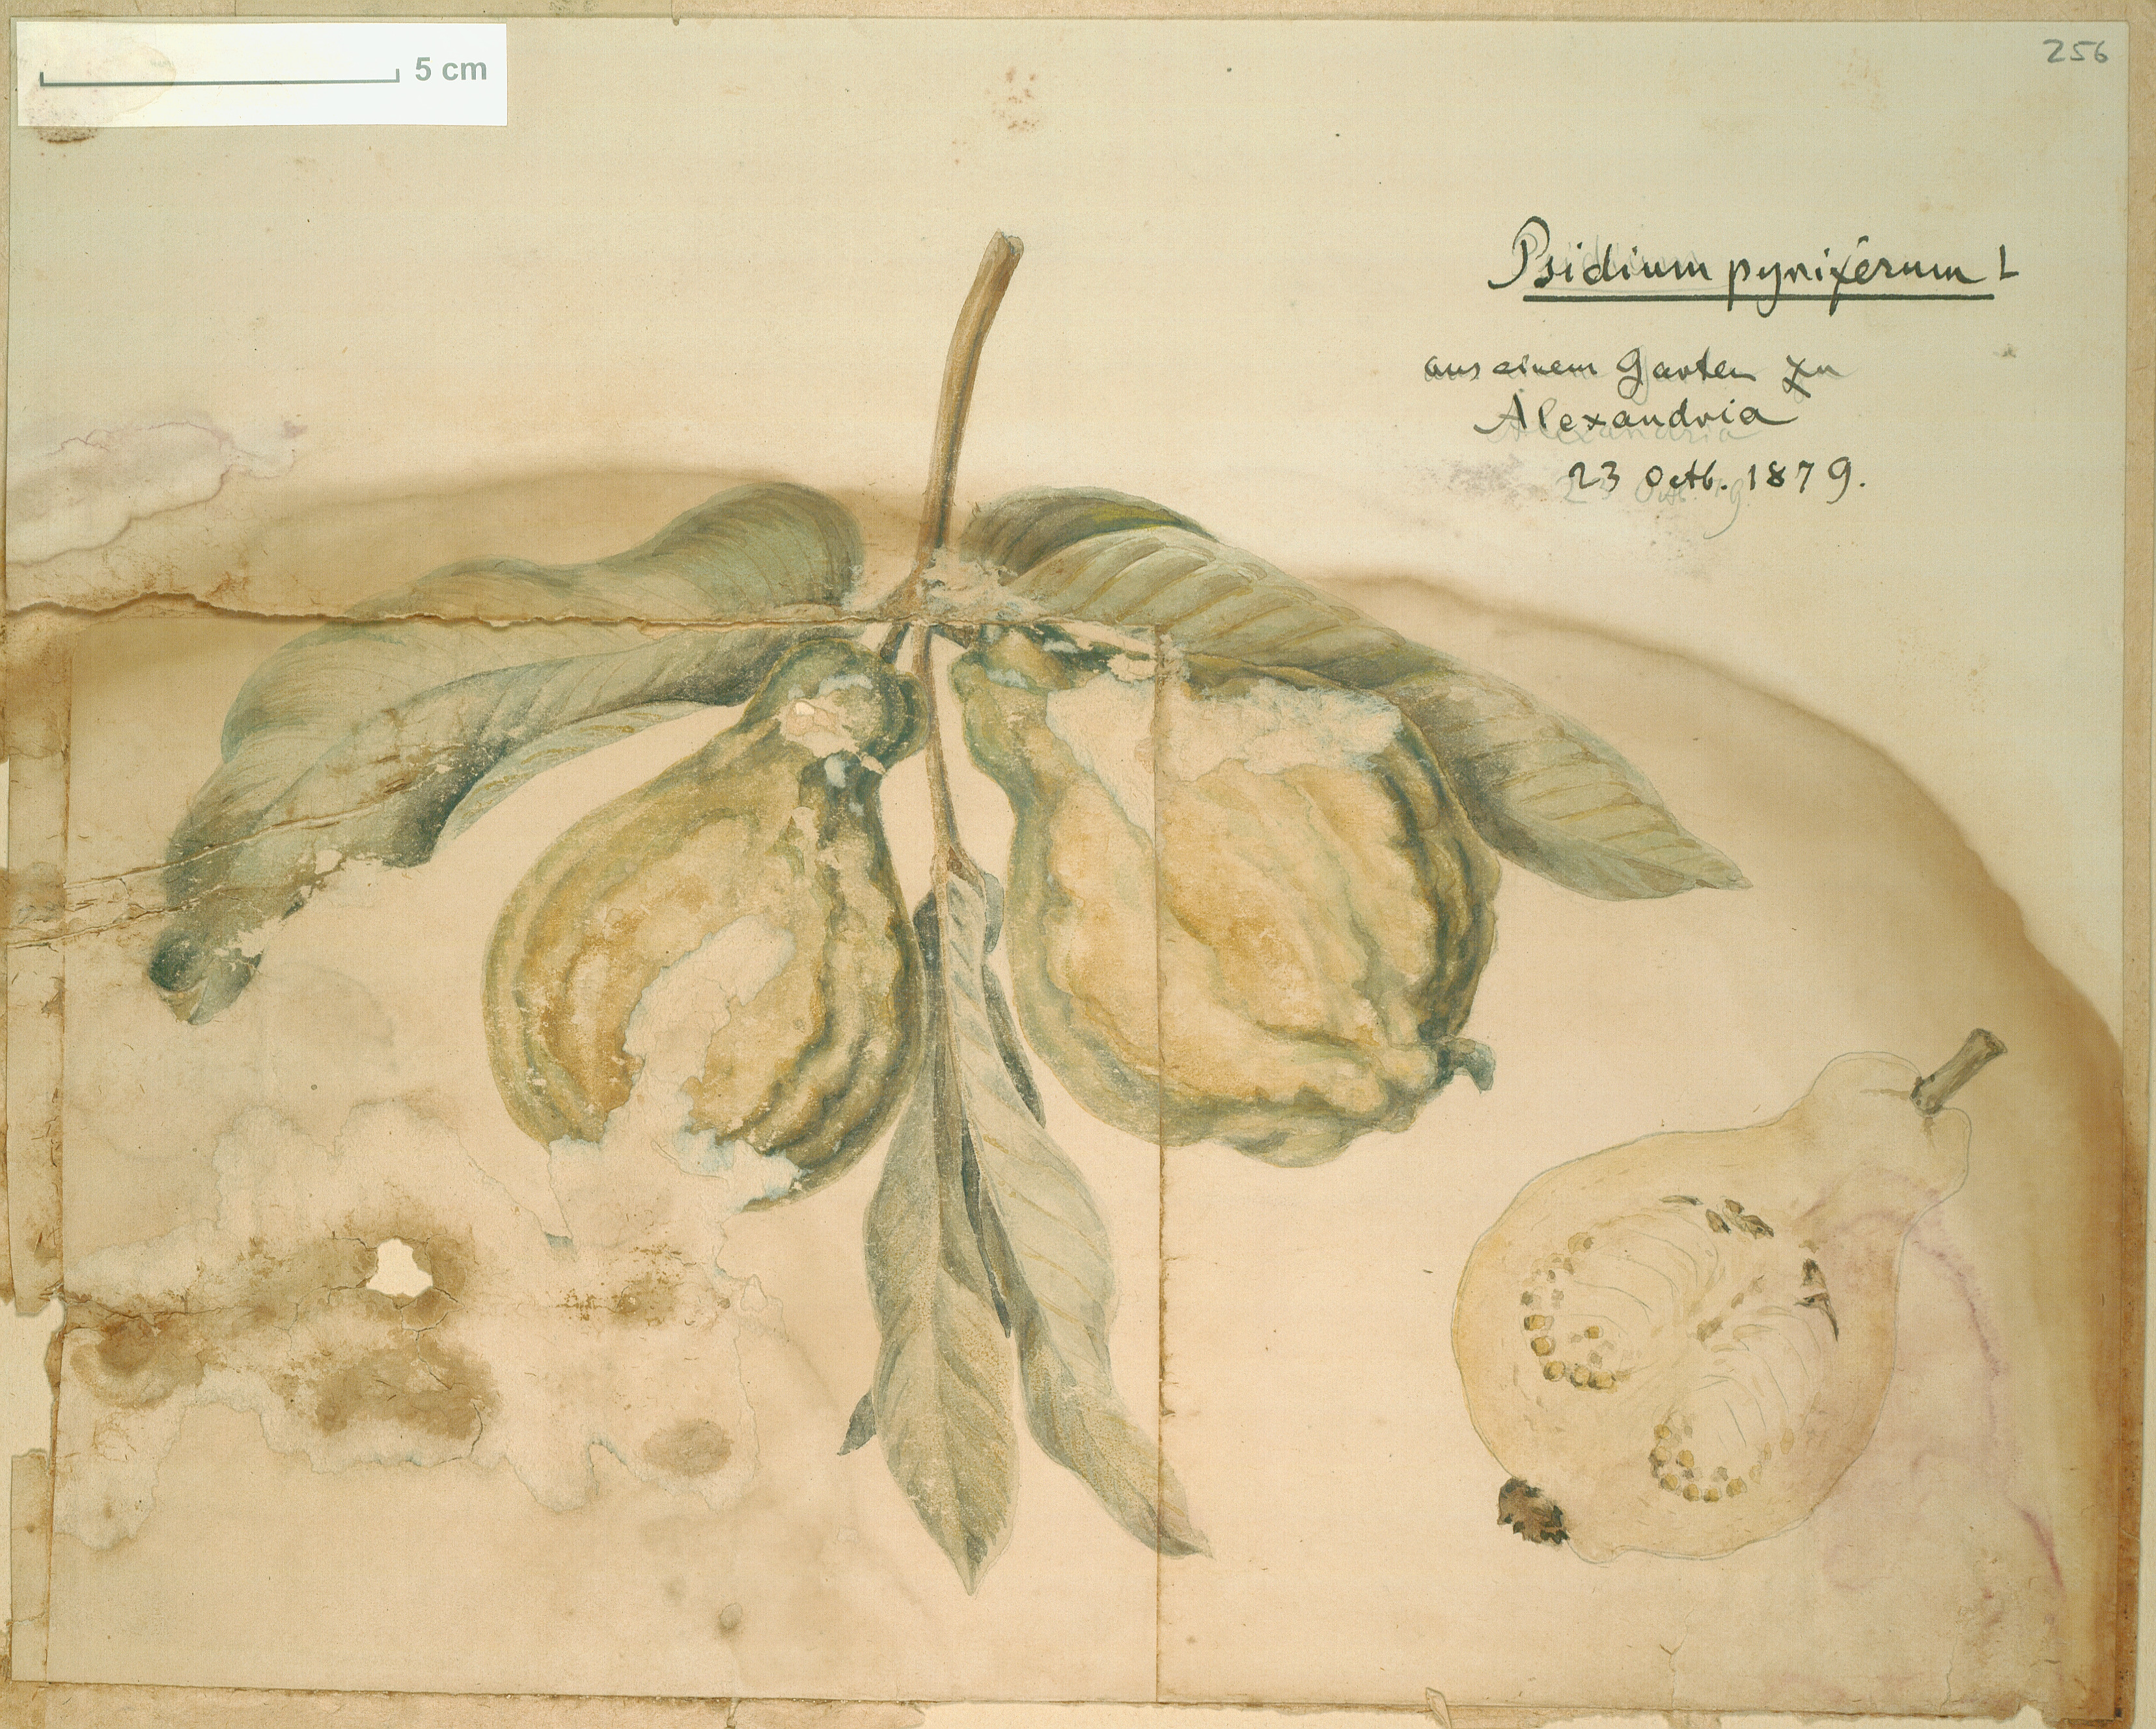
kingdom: Plantae
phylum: Tracheophyta
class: Magnoliopsida
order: Myrtales
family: Myrtaceae
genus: Psidium
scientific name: Psidium guajava
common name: Guava
